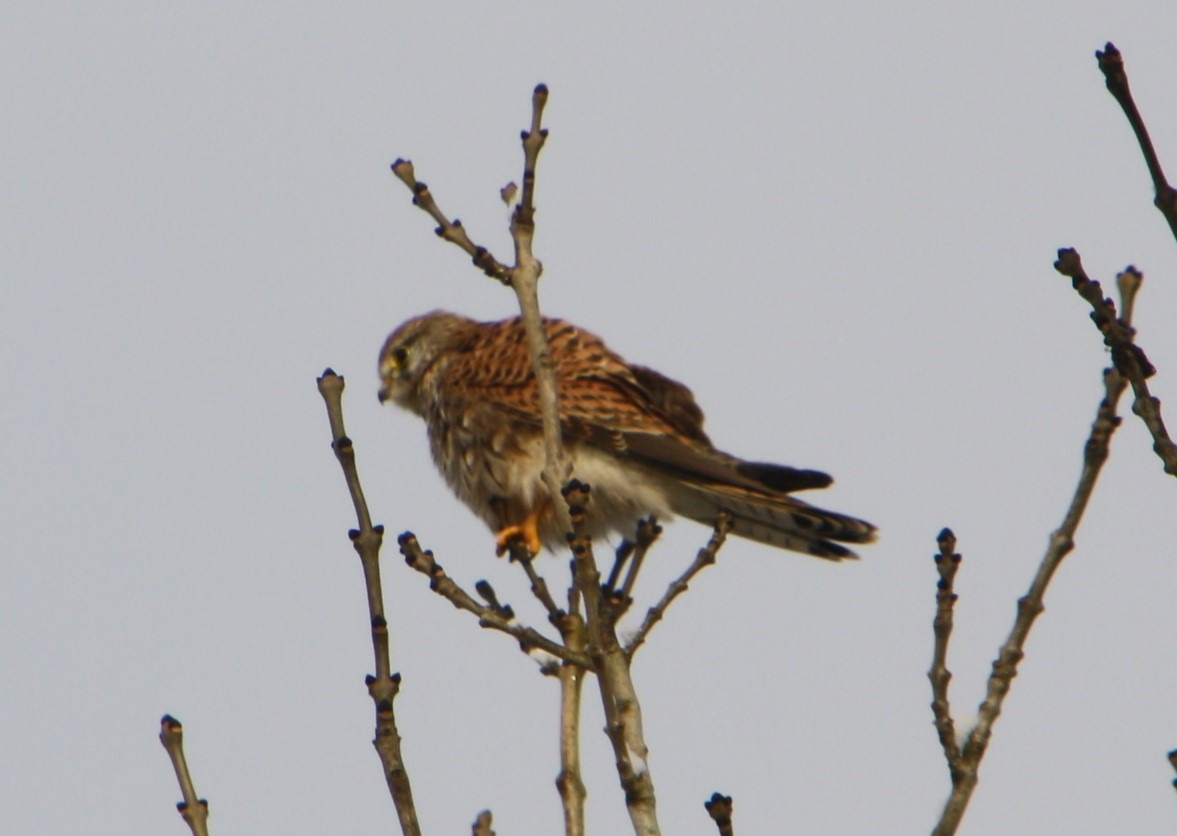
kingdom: Animalia
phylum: Chordata
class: Aves
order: Falconiformes
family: Falconidae
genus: Falco
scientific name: Falco tinnunculus
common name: Tårnfalk
